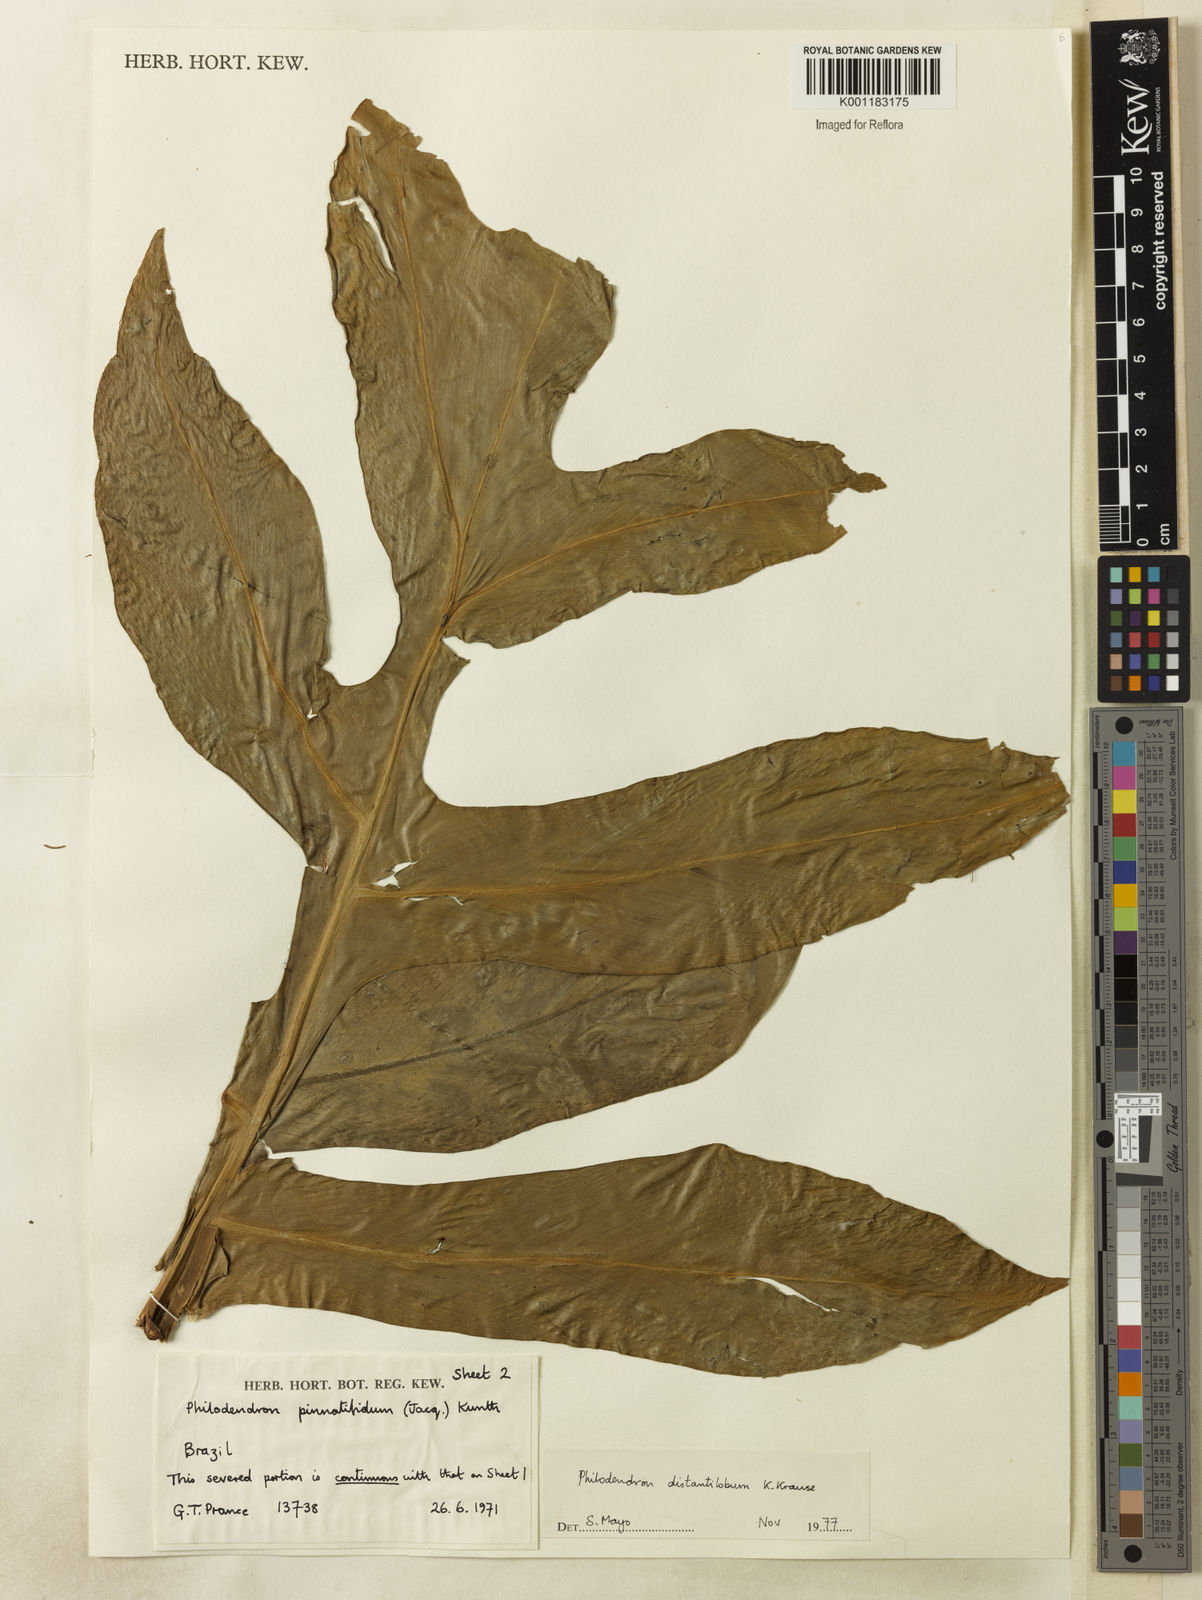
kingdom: Plantae
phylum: Tracheophyta
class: Liliopsida
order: Alismatales
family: Araceae
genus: Philodendron
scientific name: Philodendron distantilobum
